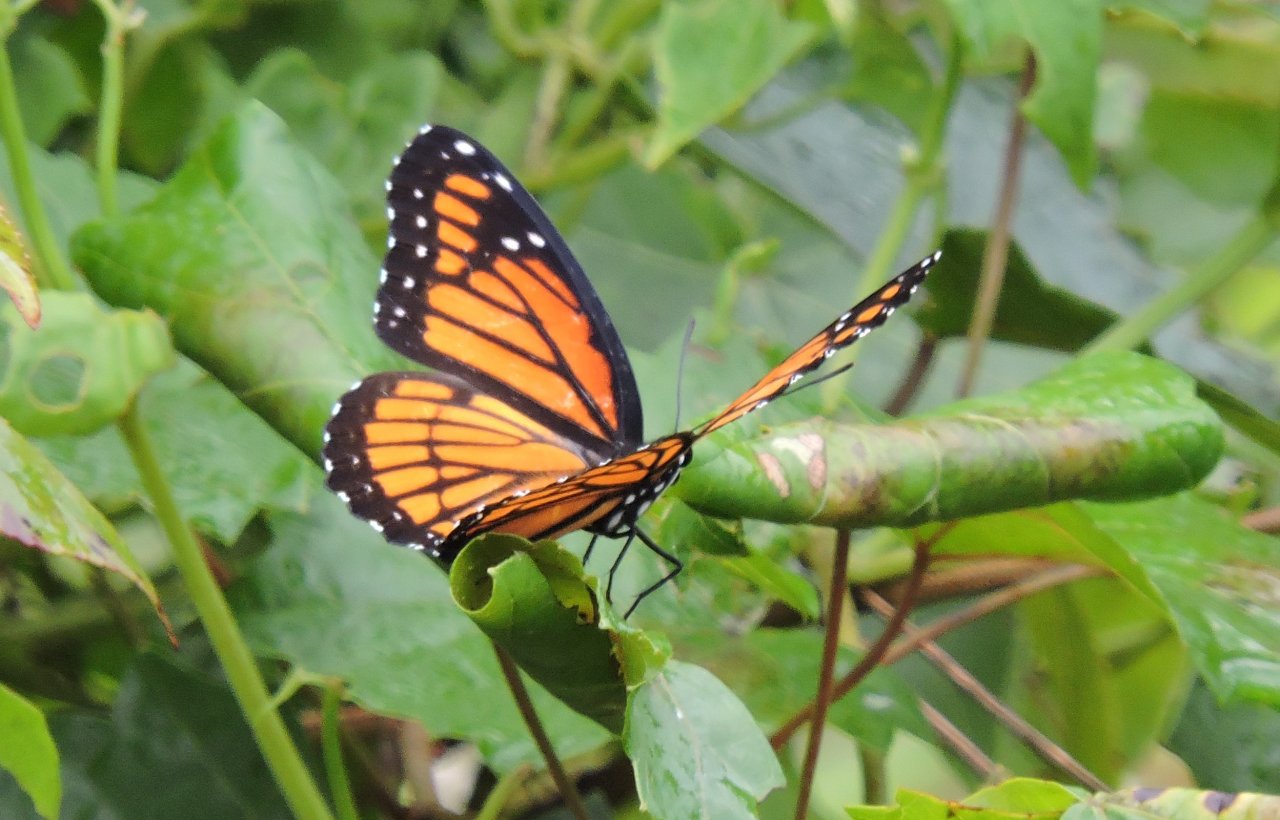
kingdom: Animalia
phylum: Arthropoda
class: Insecta
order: Lepidoptera
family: Nymphalidae
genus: Limenitis
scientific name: Limenitis archippus
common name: Viceroy
